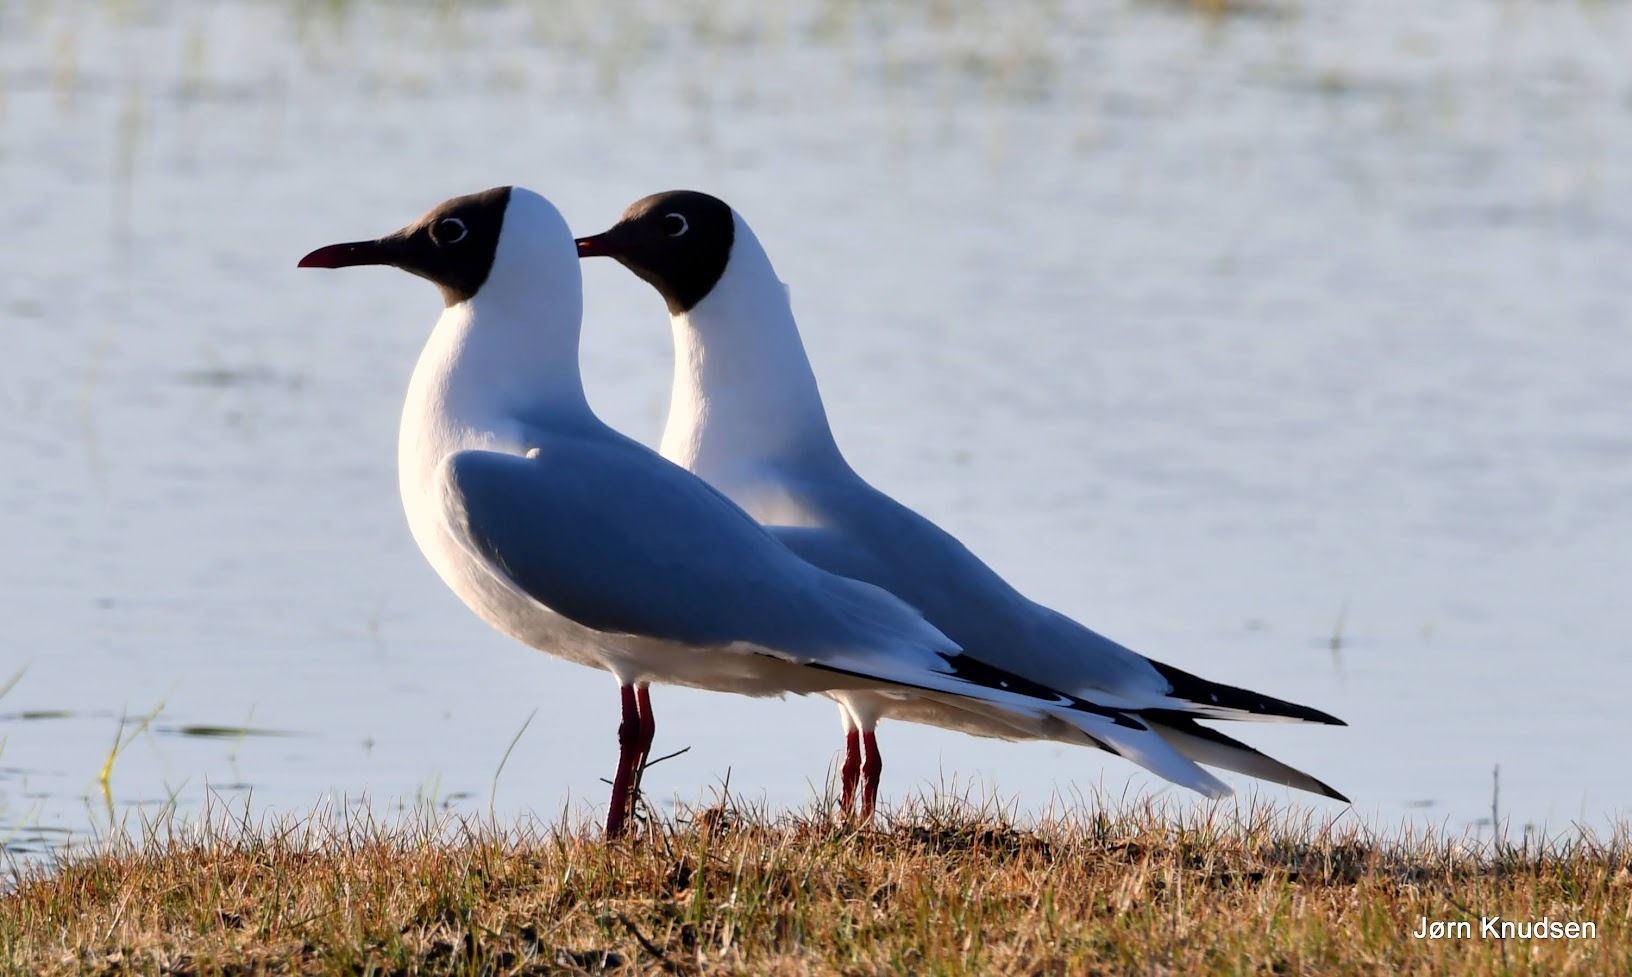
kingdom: Animalia
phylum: Chordata
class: Aves
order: Charadriiformes
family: Laridae
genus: Chroicocephalus
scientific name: Chroicocephalus ridibundus
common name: Hættemåge
